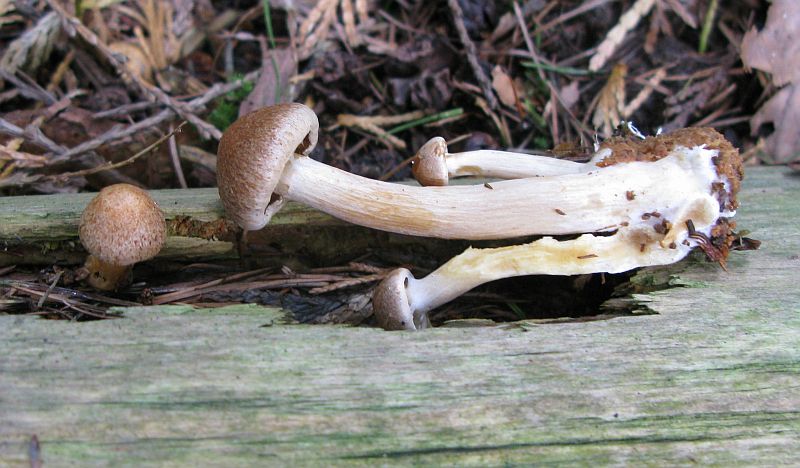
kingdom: Fungi
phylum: Basidiomycota
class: Agaricomycetes
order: Agaricales
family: Hymenogastraceae
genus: Gymnopilus
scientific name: Gymnopilus penetrans
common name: plettet flammehat
